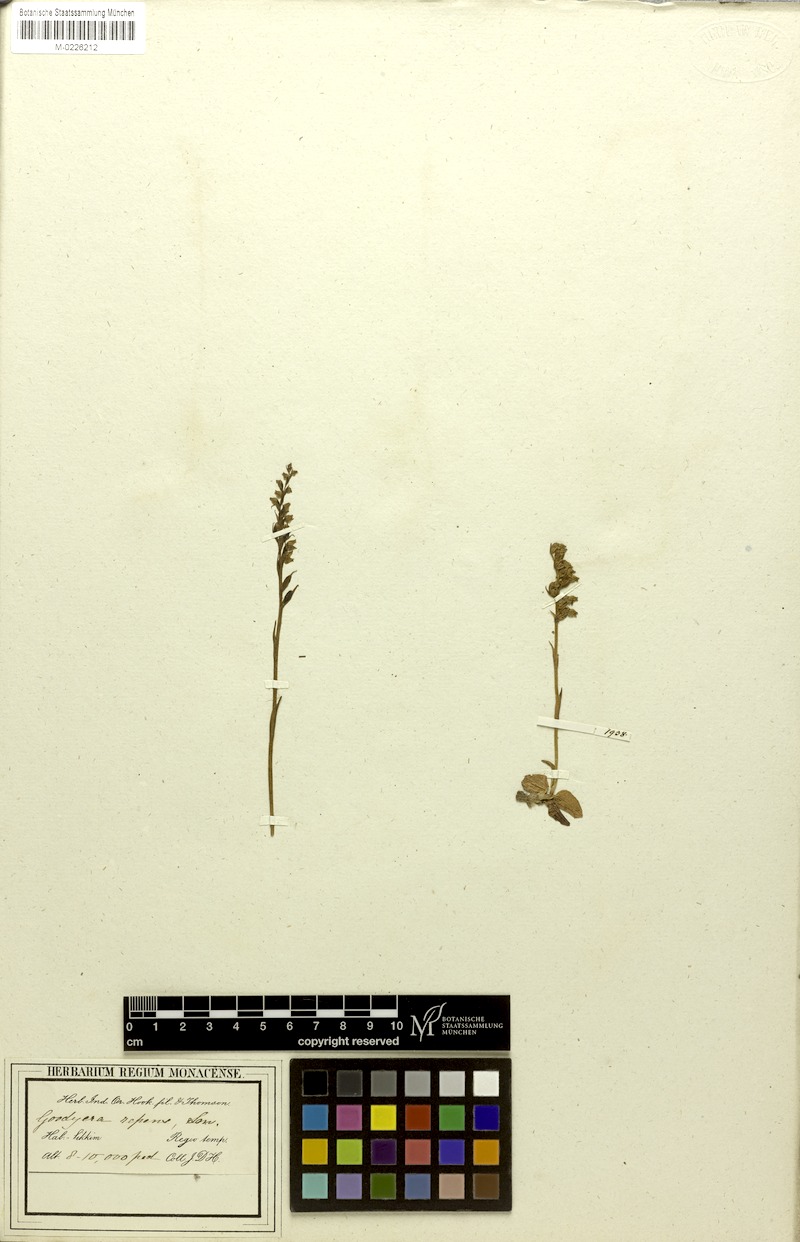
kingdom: Plantae
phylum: Tracheophyta
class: Liliopsida
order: Asparagales
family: Orchidaceae
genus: Goodyera
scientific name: Goodyera repens
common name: Creeping lady's-tresses
